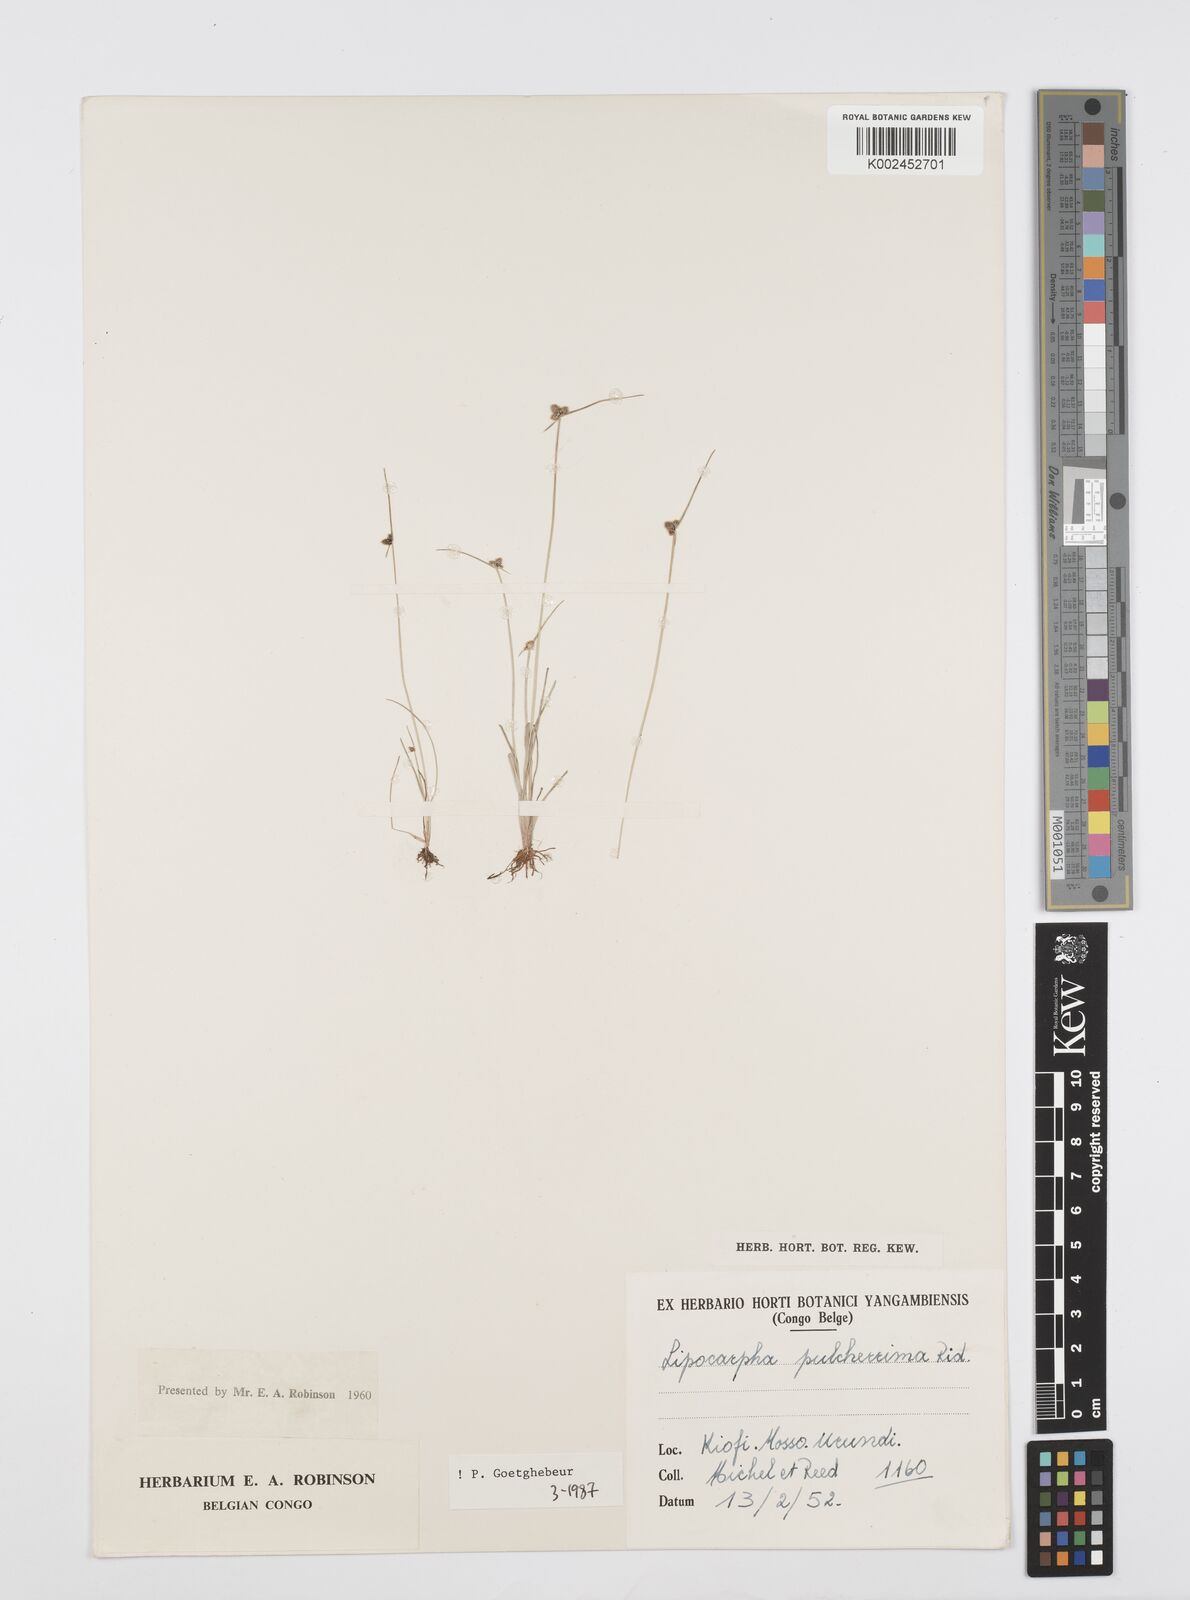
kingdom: Plantae
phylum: Tracheophyta
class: Liliopsida
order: Poales
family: Cyperaceae
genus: Cyperus
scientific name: Cyperus persquarrosus
